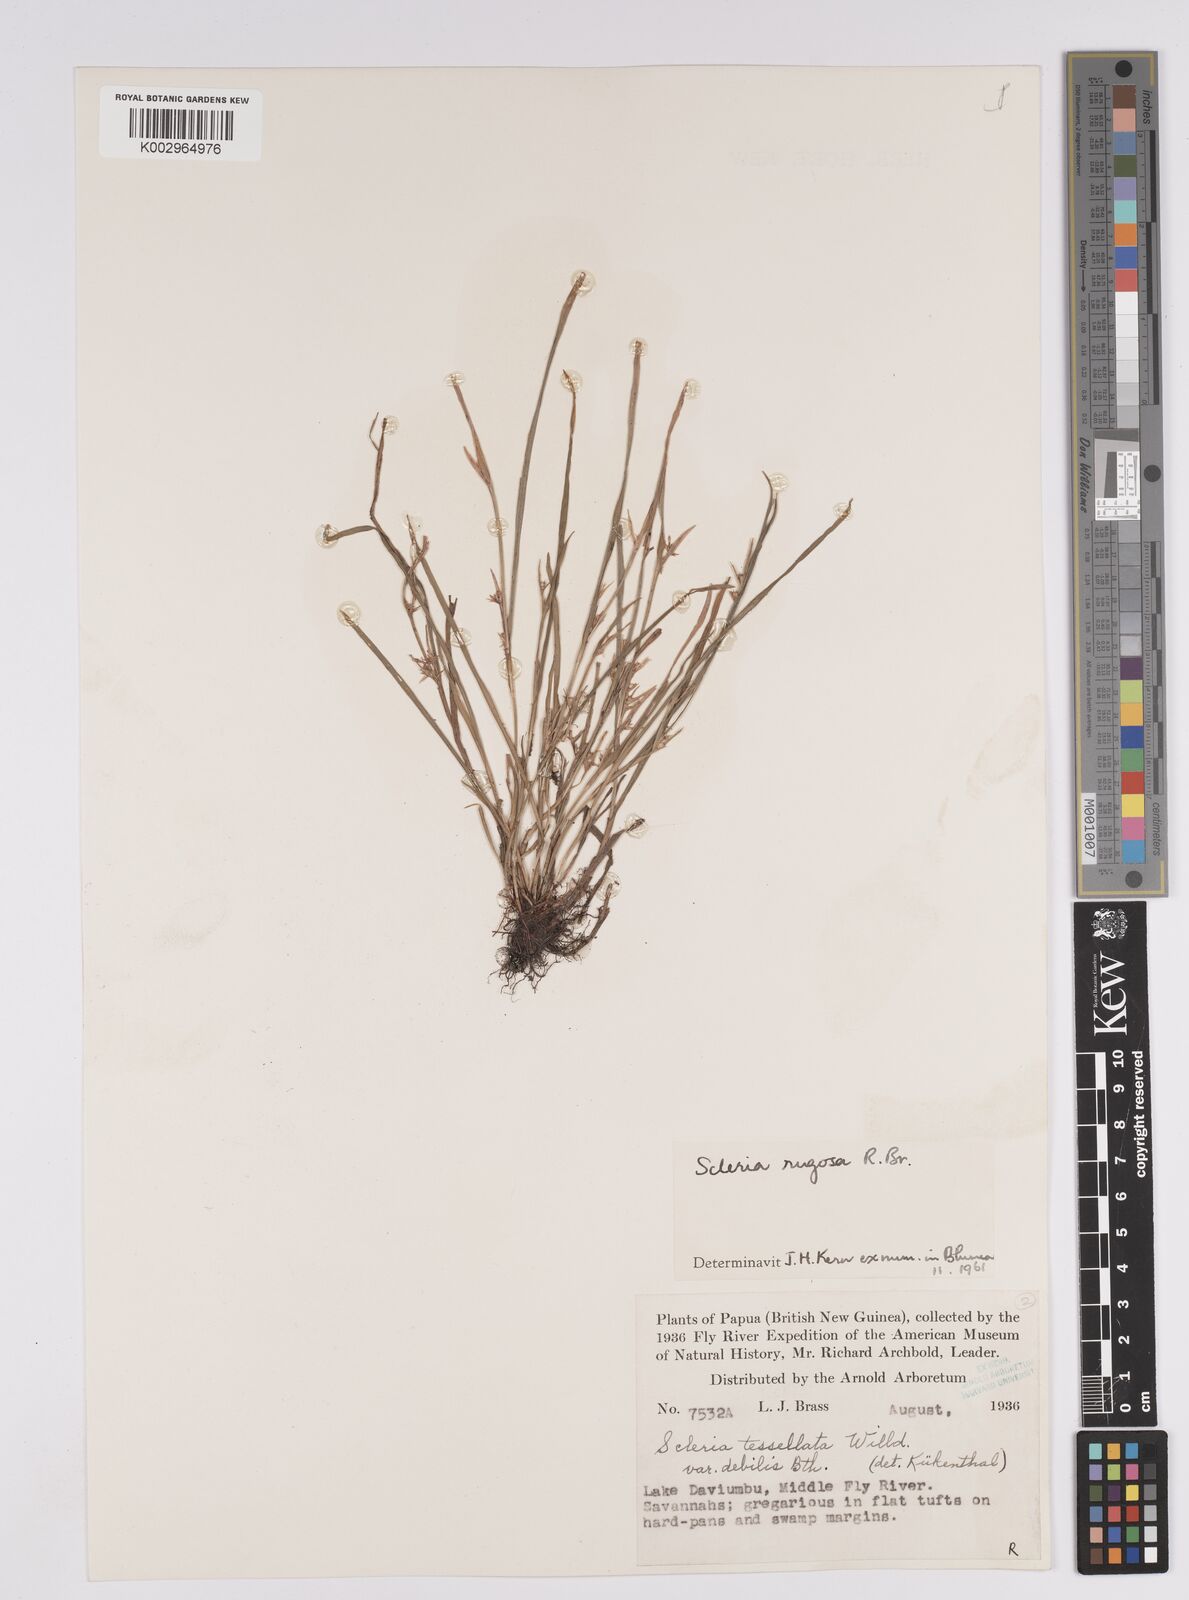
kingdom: Plantae
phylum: Tracheophyta
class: Liliopsida
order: Poales
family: Cyperaceae
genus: Scleria
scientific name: Scleria rugosa
